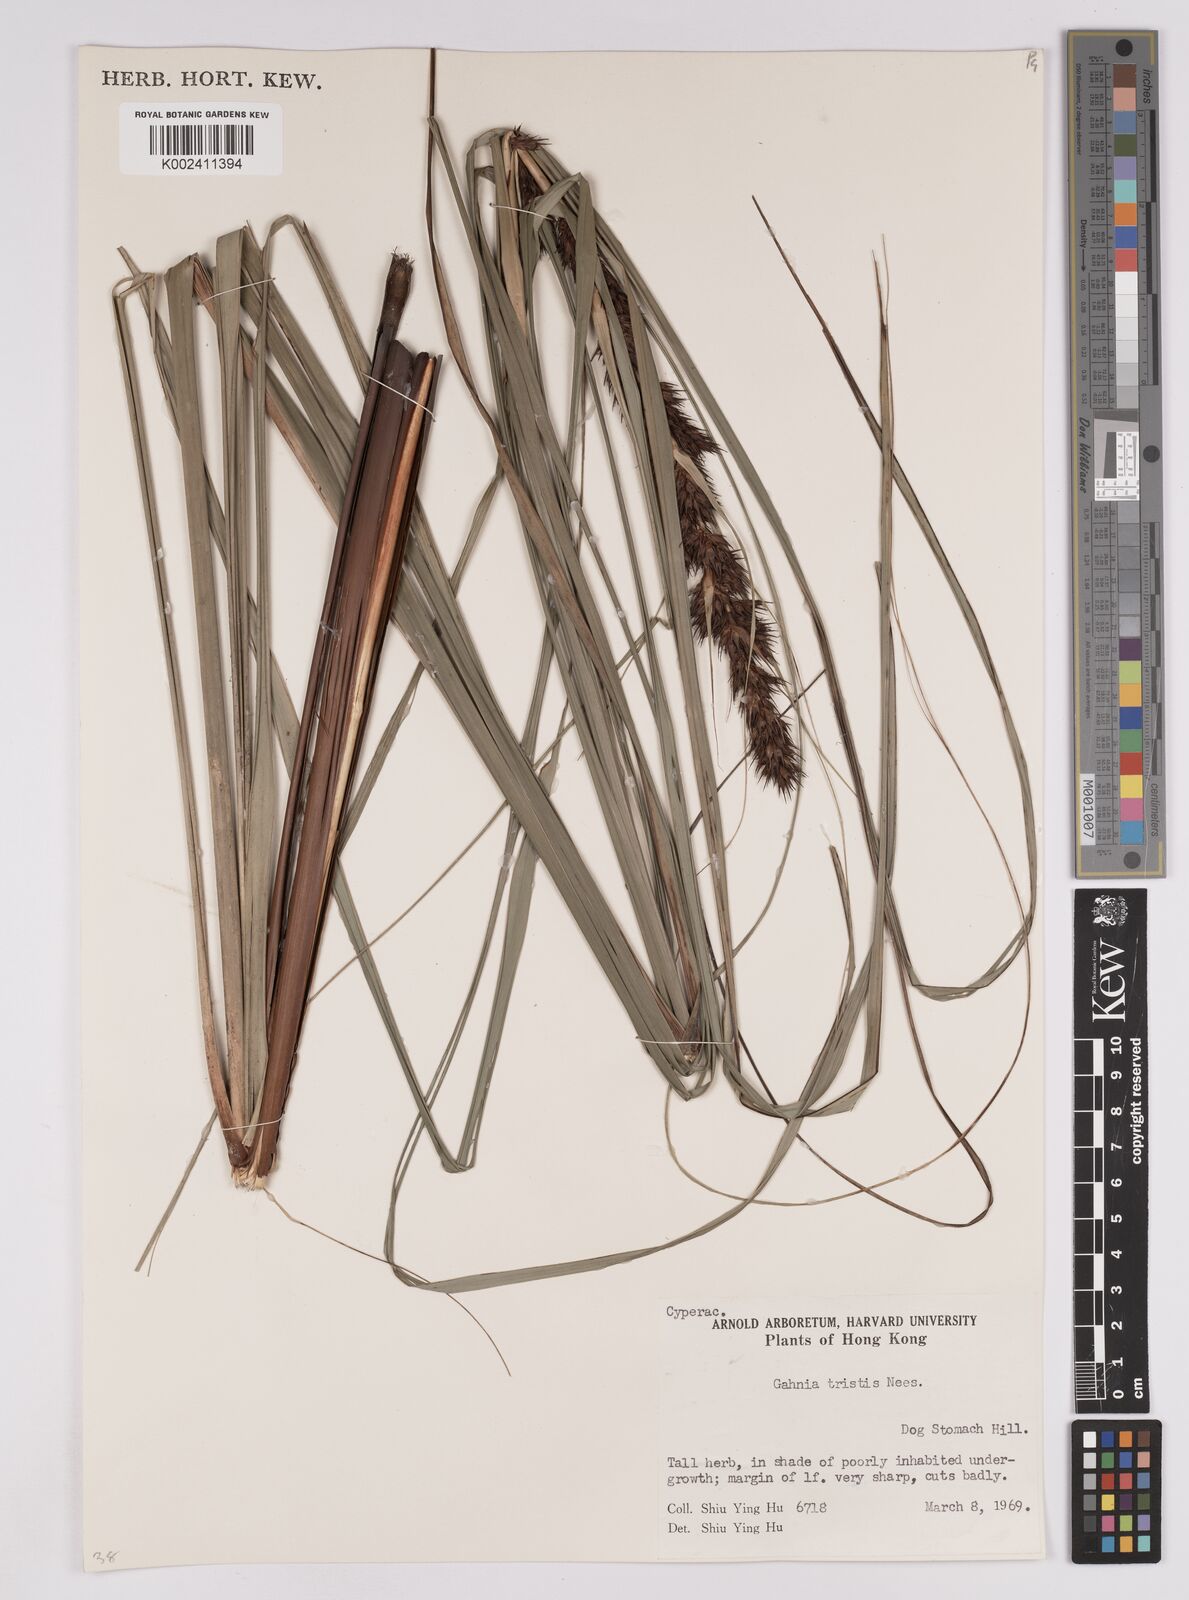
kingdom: Plantae
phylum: Tracheophyta
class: Liliopsida
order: Poales
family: Cyperaceae
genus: Gahnia
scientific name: Gahnia tristis
